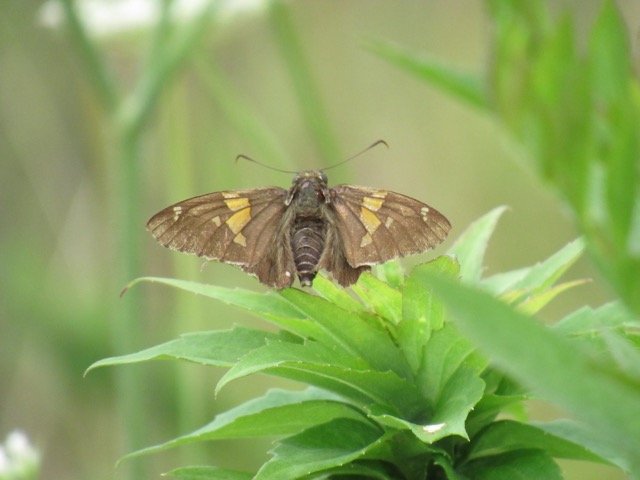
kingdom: Animalia
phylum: Arthropoda
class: Insecta
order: Lepidoptera
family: Hesperiidae
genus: Epargyreus
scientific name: Epargyreus clarus
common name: Silver-spotted Skipper
